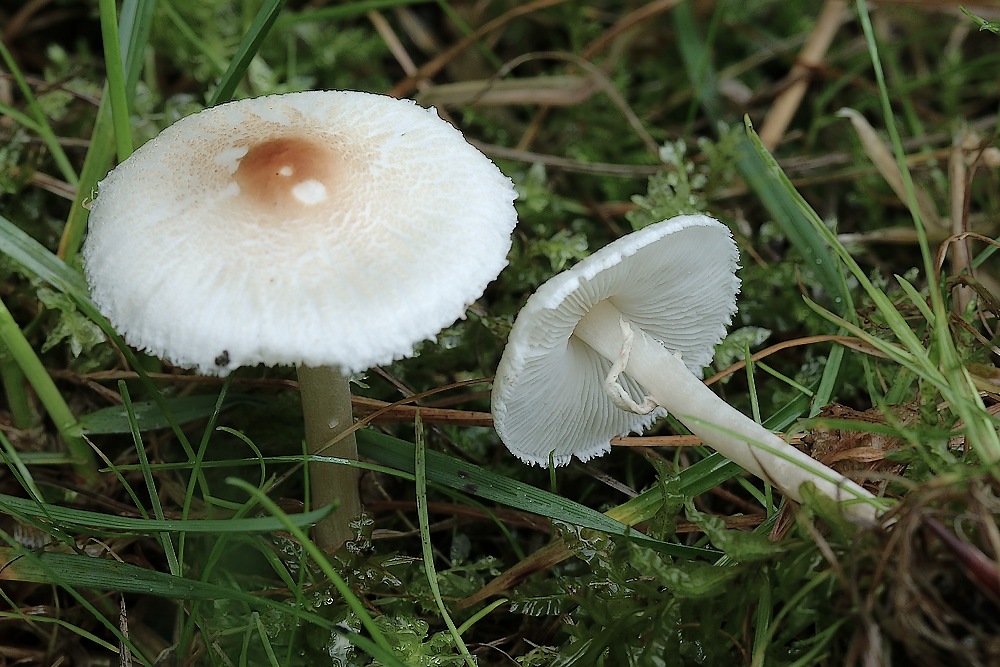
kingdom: Fungi
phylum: Basidiomycota
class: Agaricomycetes
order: Agaricales
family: Agaricaceae
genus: Lepiota
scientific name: Lepiota cristata
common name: stinkende parasolhat
